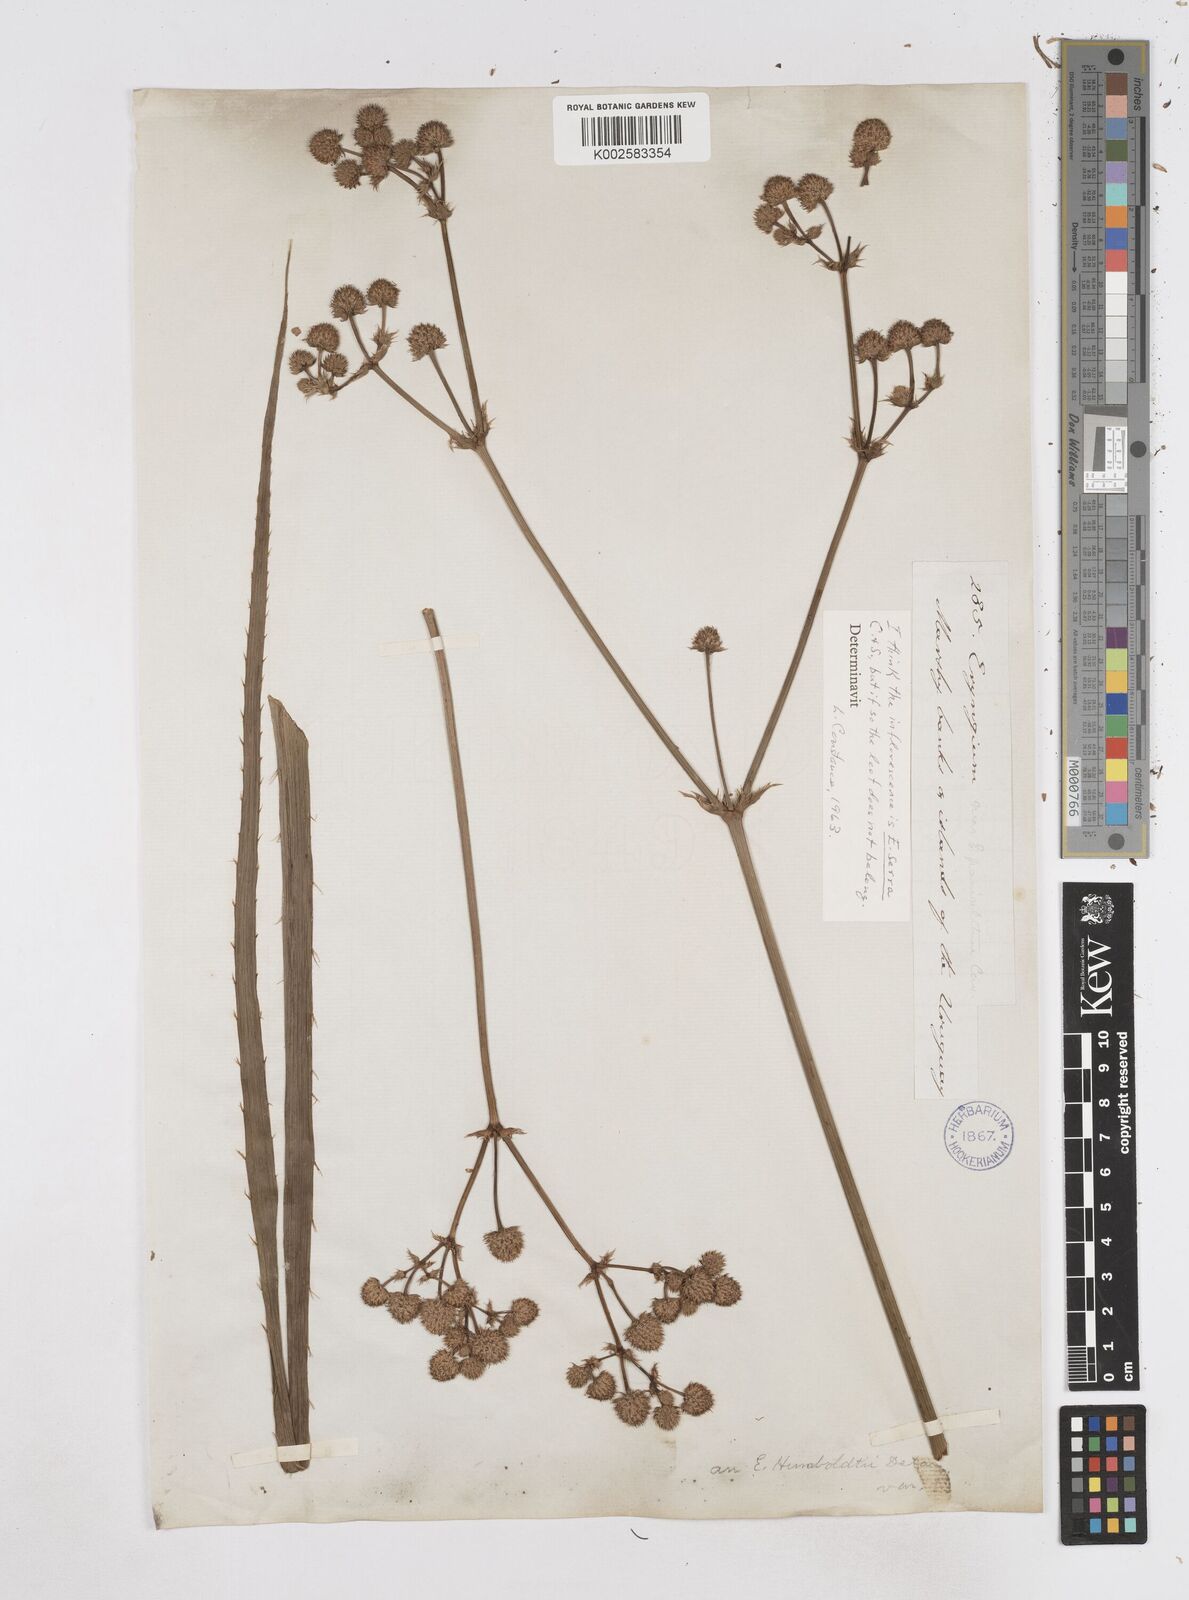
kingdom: Plantae
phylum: Tracheophyta
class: Magnoliopsida
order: Apiales
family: Apiaceae
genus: Eryngium
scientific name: Eryngium serra
